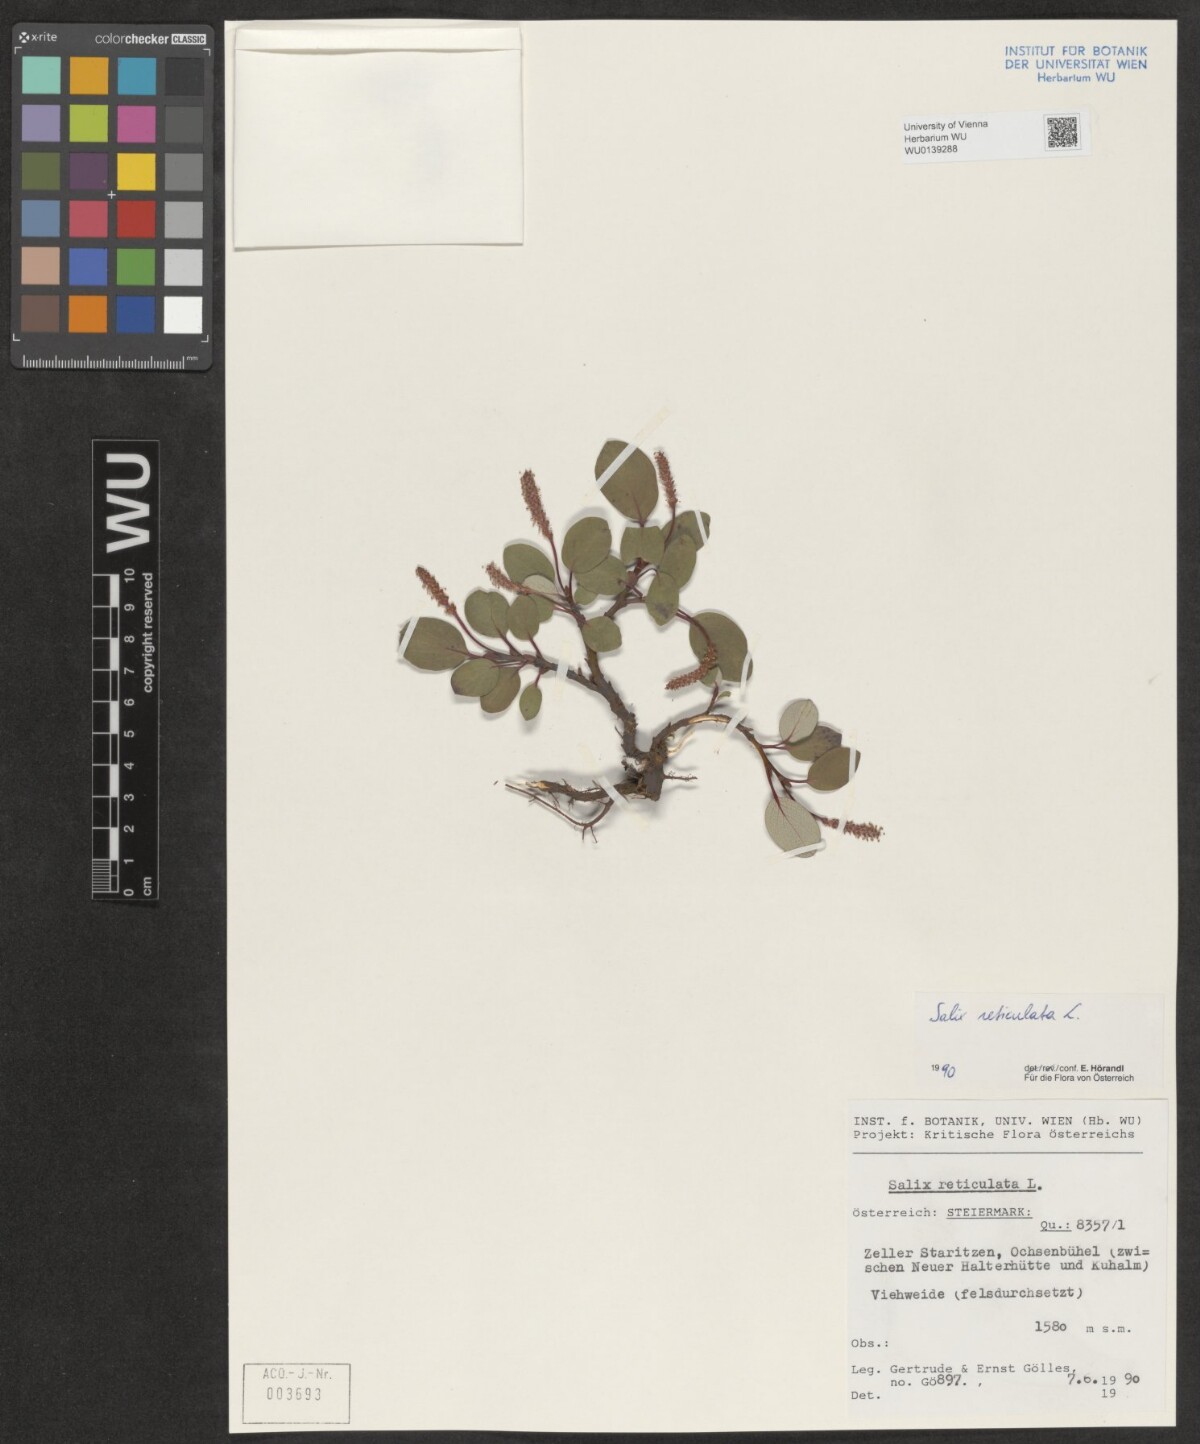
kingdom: Plantae
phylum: Tracheophyta
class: Magnoliopsida
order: Malpighiales
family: Salicaceae
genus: Salix
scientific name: Salix reticulata
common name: Net-leaved willow
